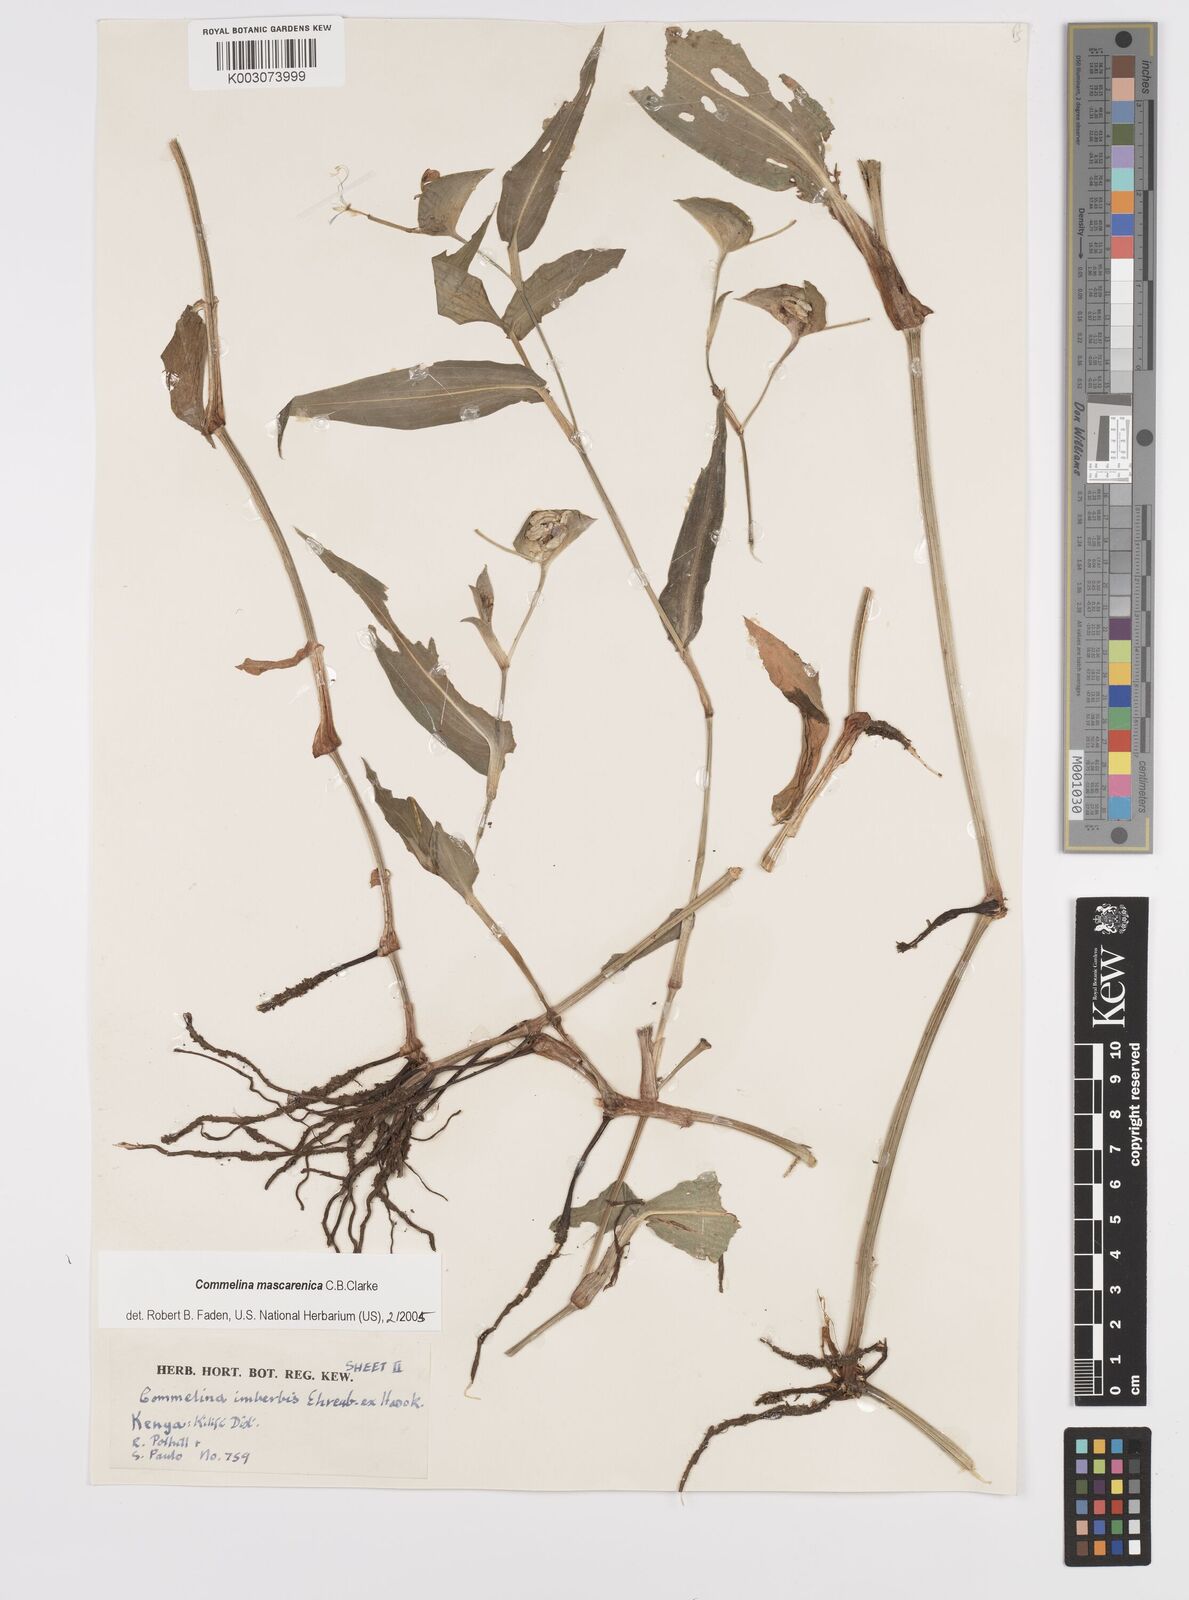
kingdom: Plantae
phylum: Tracheophyta
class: Liliopsida
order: Commelinales
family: Commelinaceae
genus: Commelina
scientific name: Commelina mascarenica
